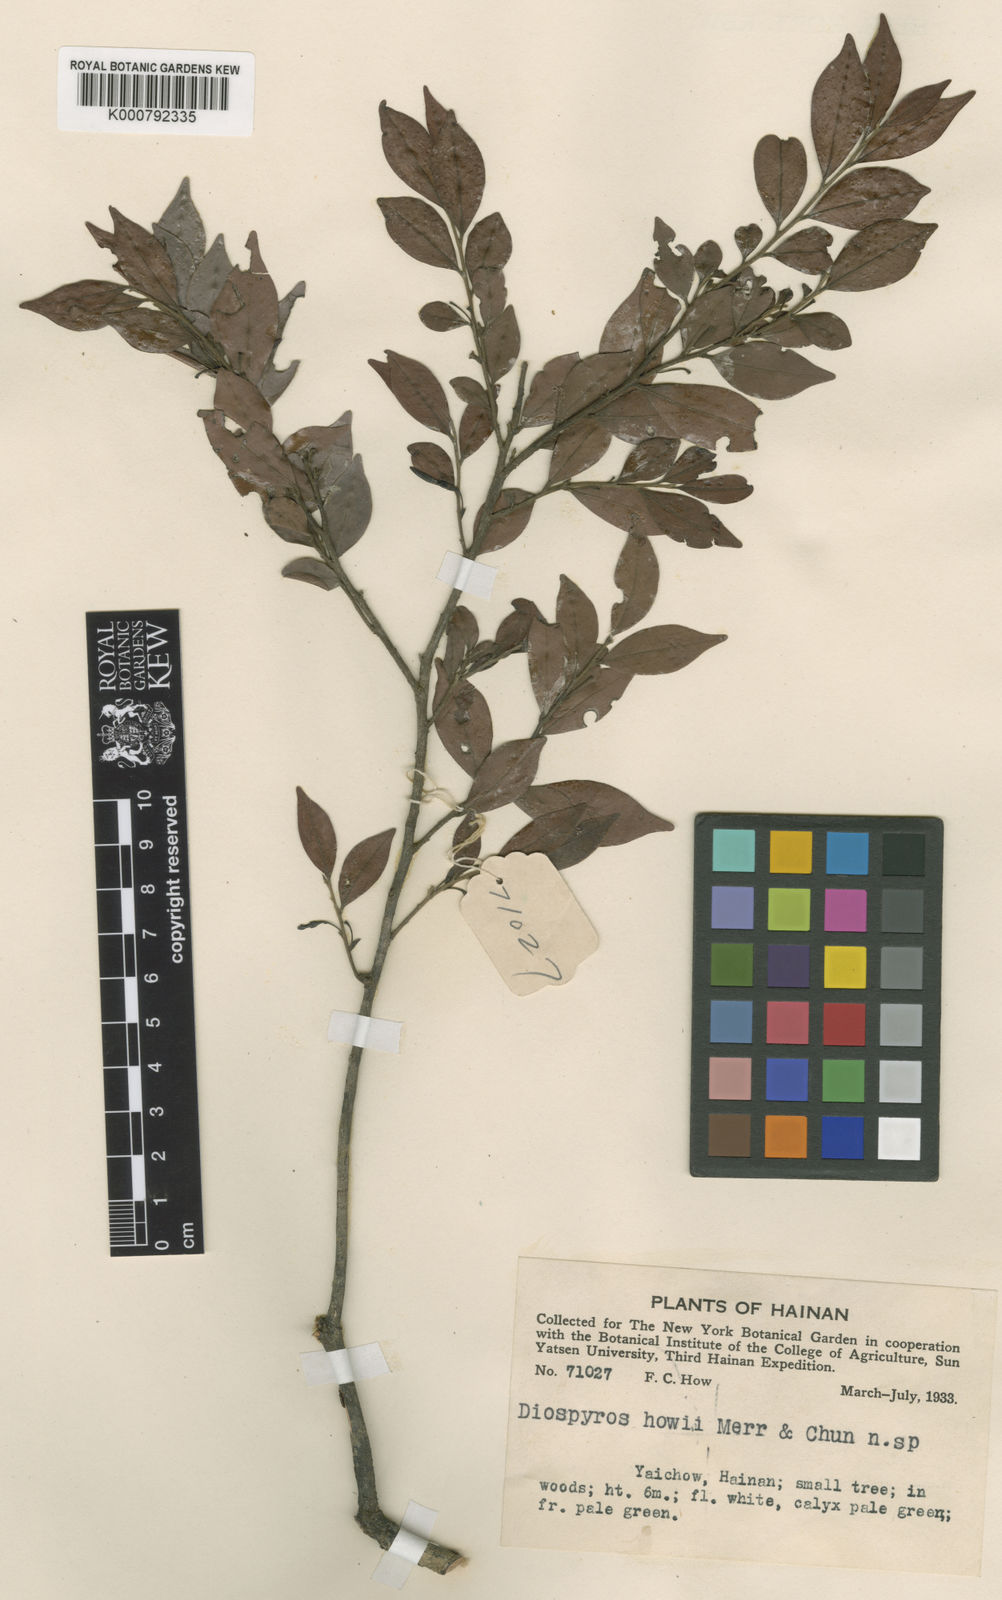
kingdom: Plantae
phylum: Tracheophyta
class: Magnoliopsida
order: Ericales
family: Ebenaceae
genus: Diospyros
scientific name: Diospyros howii
